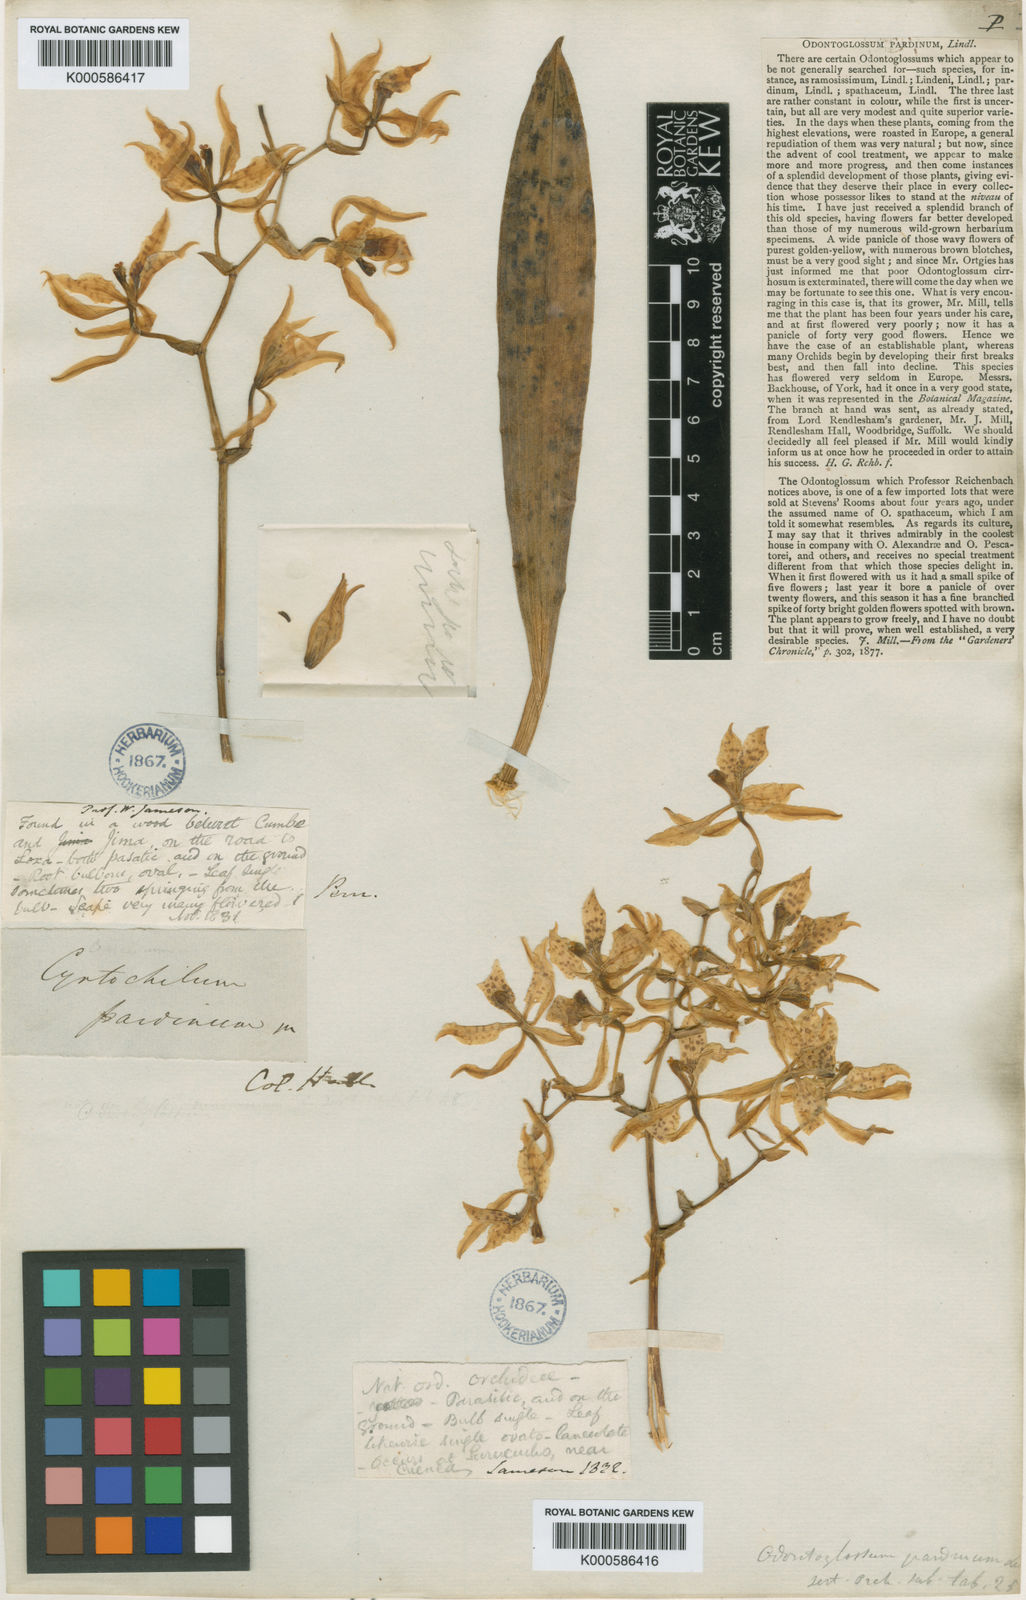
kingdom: Plantae
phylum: Tracheophyta
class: Liliopsida
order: Asparagales
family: Orchidaceae
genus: Cyrtochilum
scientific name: Cyrtochilum pardinum
